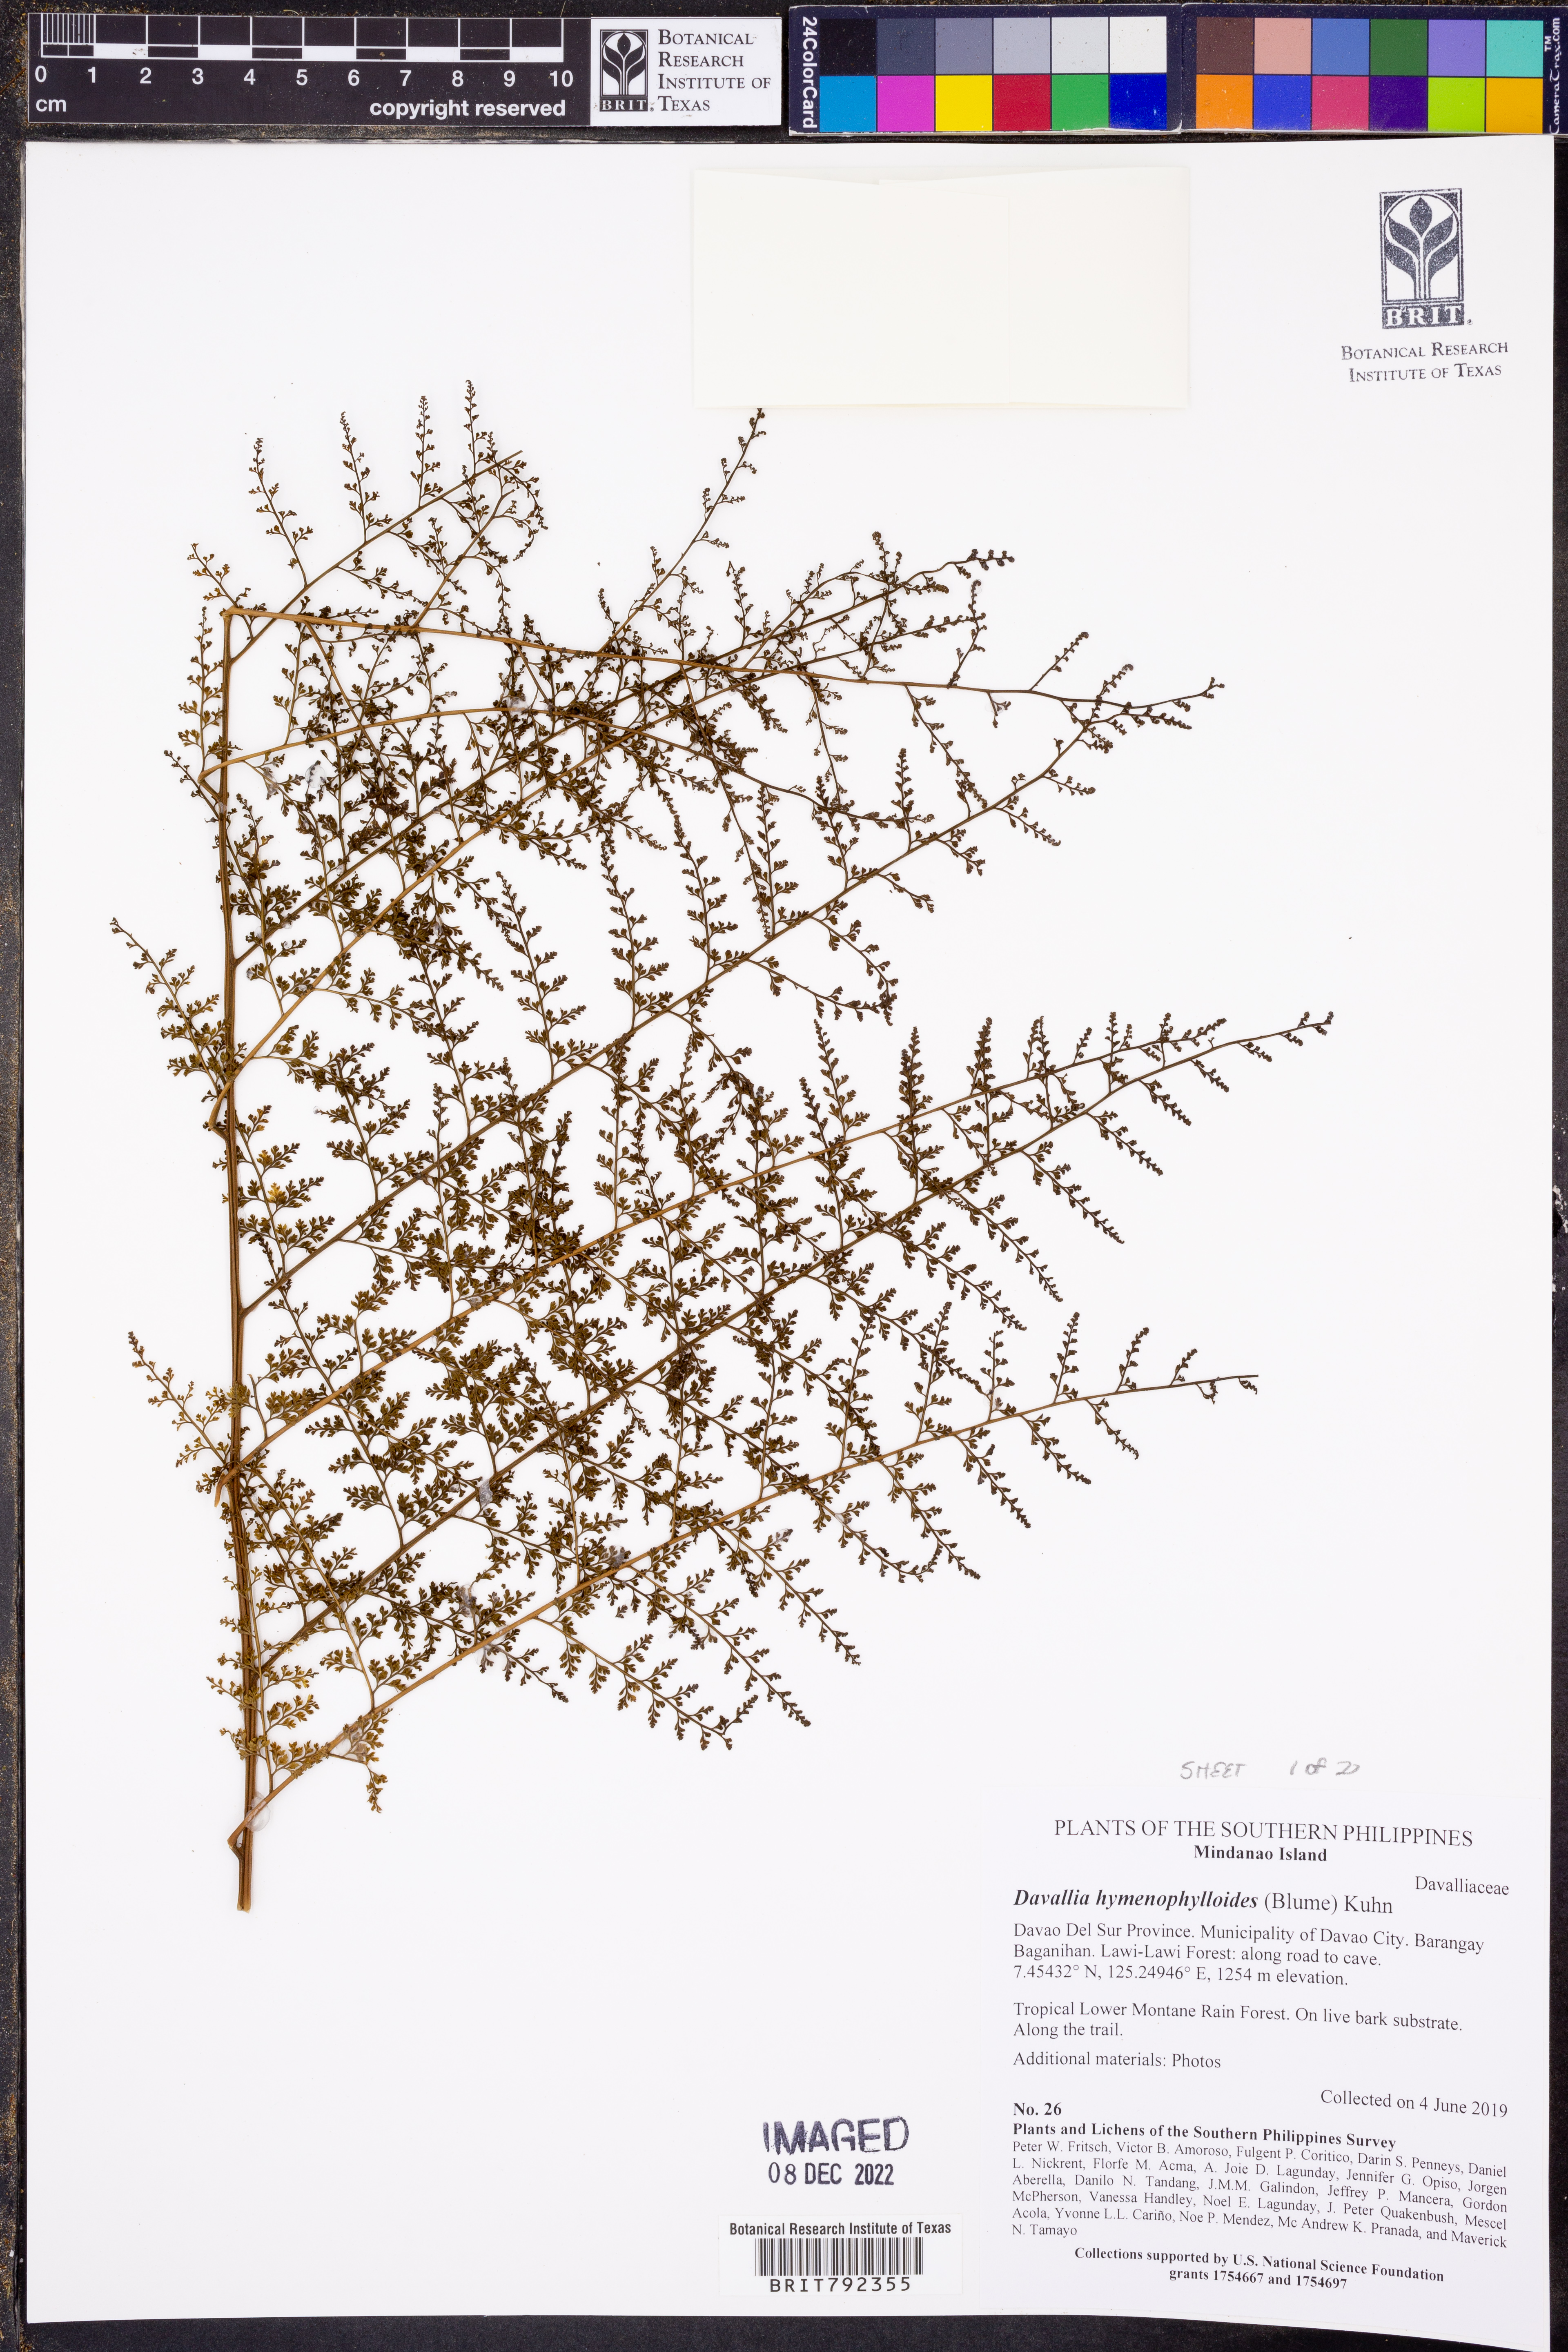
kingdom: Plantae
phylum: Tracheophyta
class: Polypodiopsida
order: Polypodiales
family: Davalliaceae
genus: Davallodes
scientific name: Davallodes hymenophylloides
